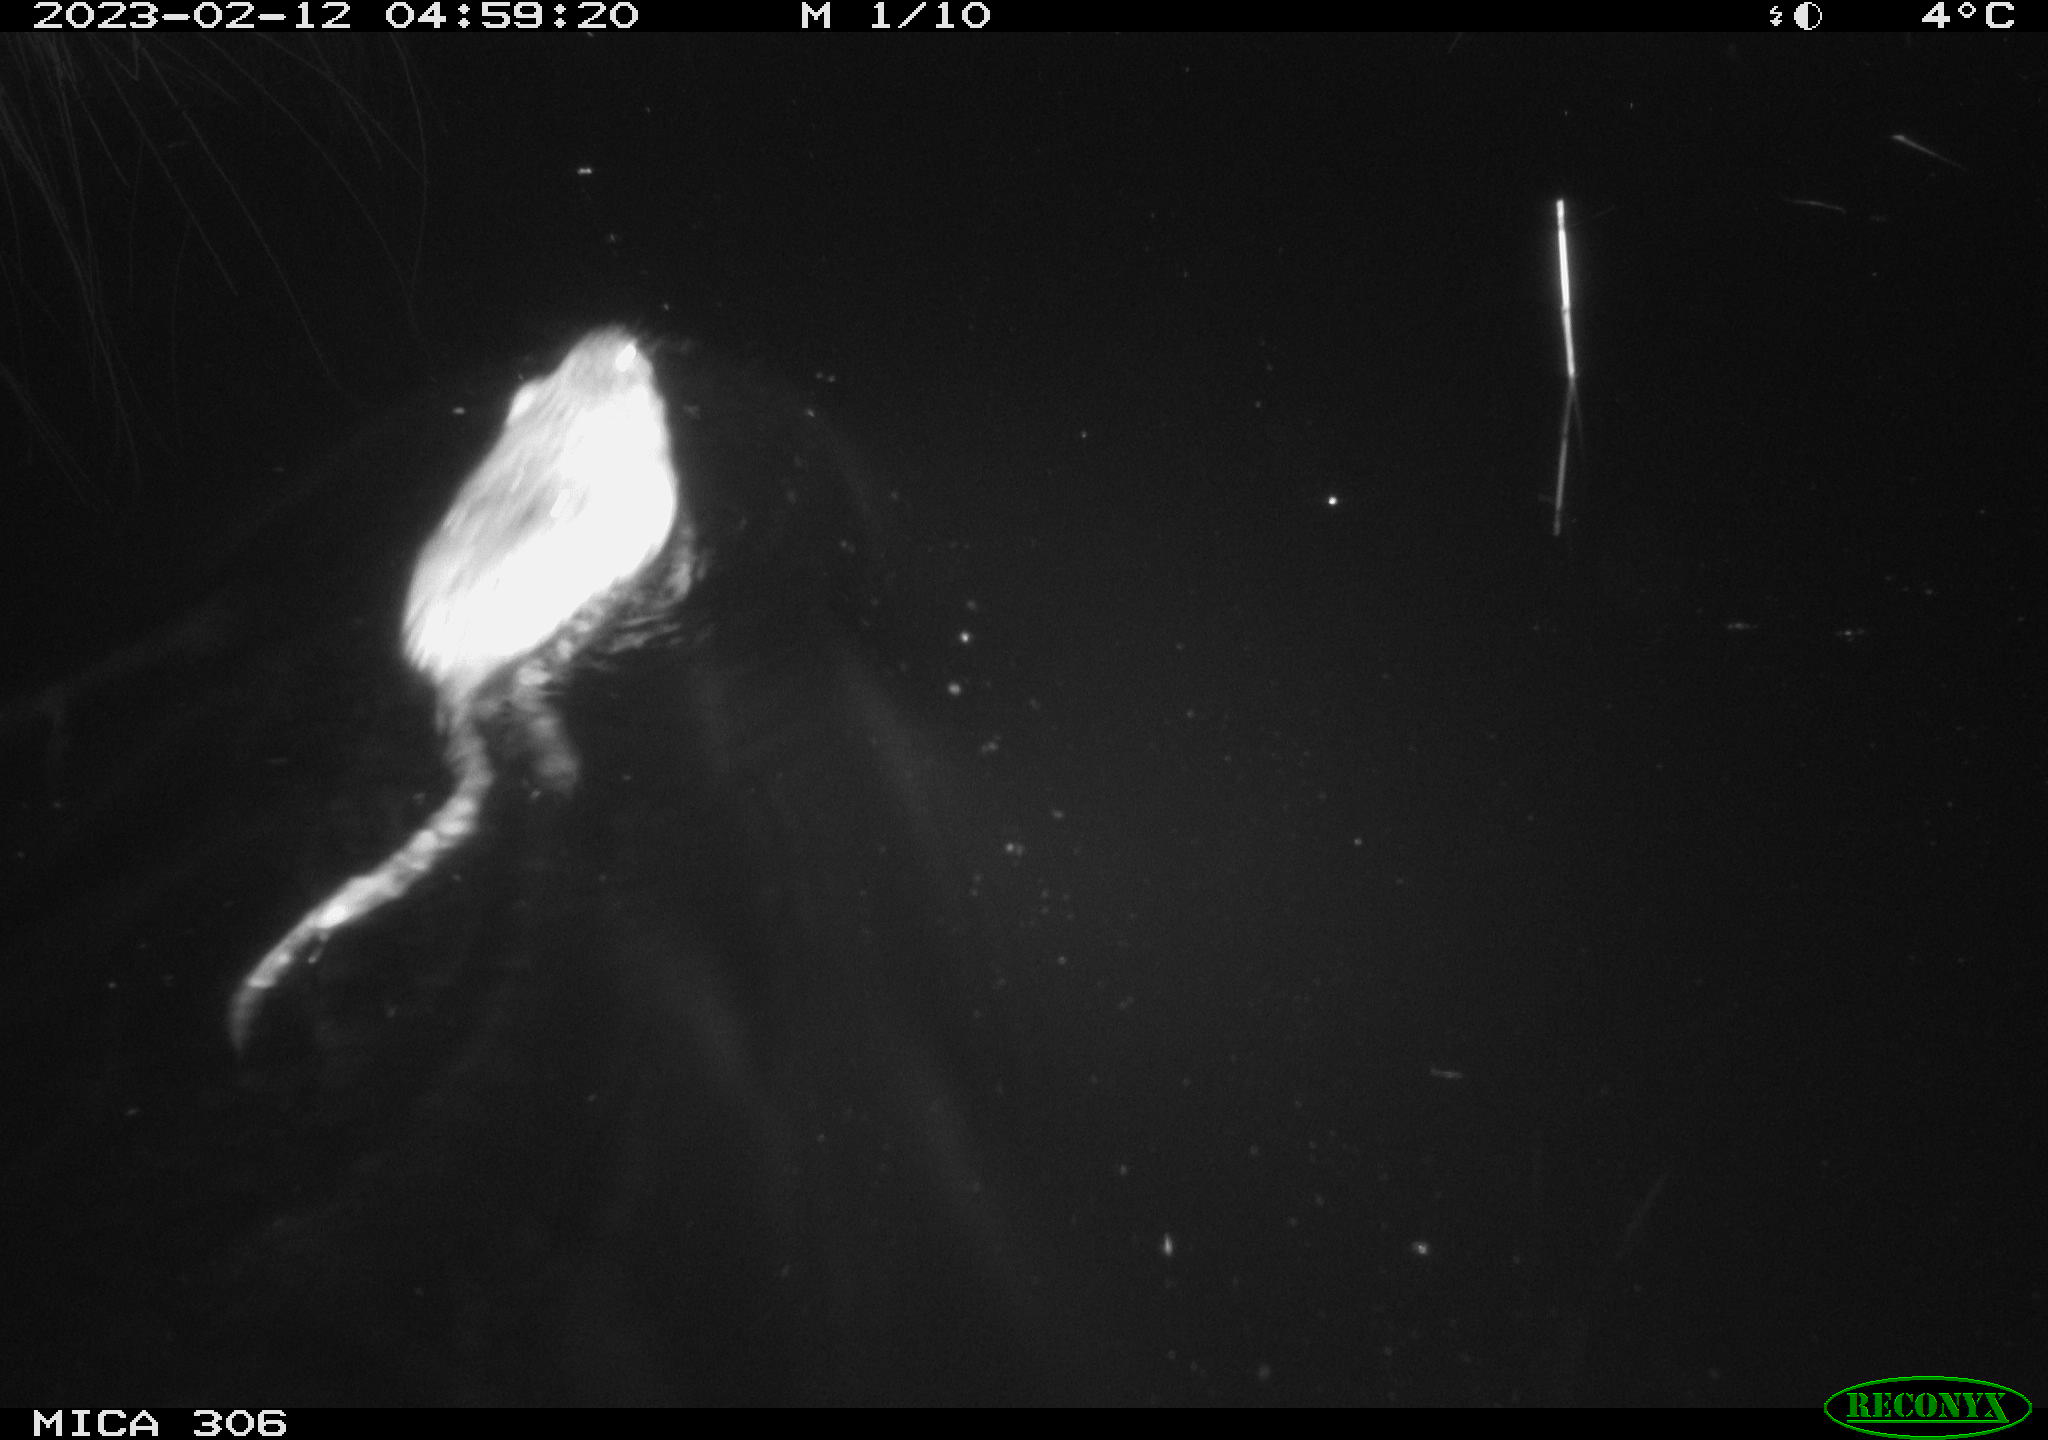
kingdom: Animalia
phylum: Chordata
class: Mammalia
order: Rodentia
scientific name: Rodentia
